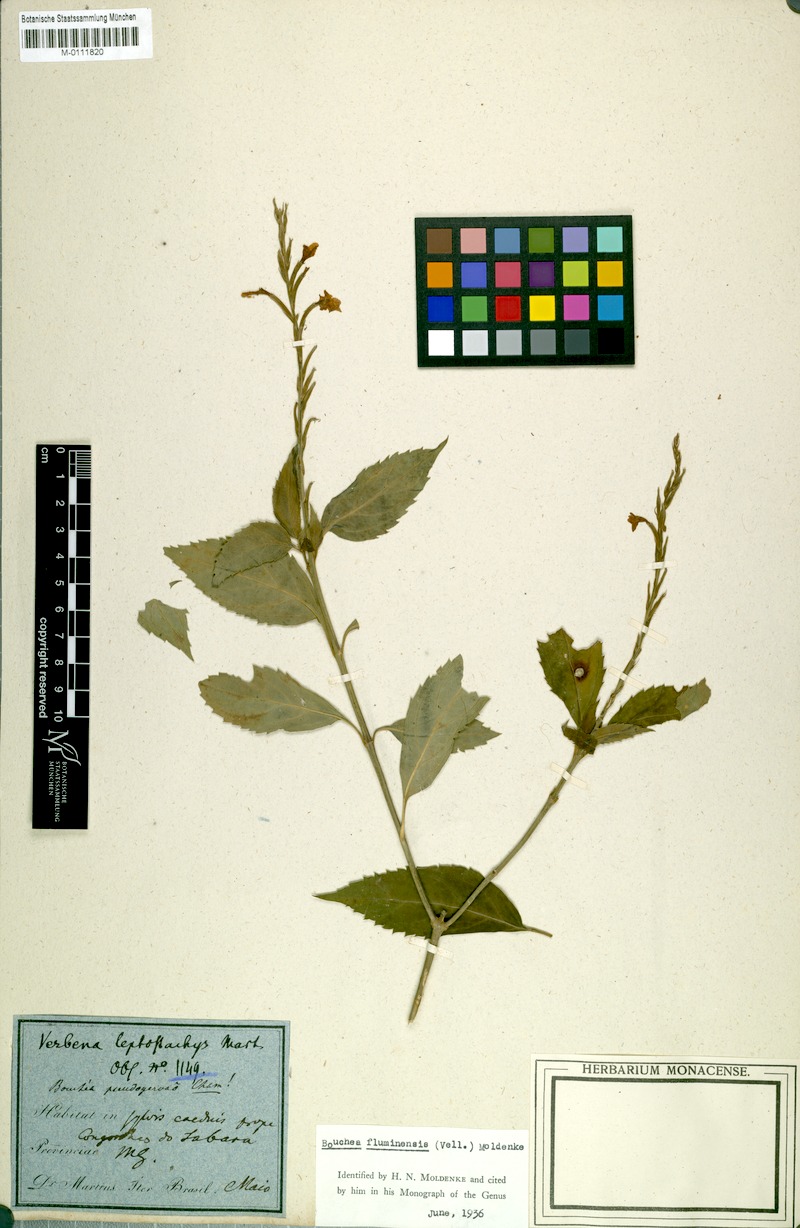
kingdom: Plantae
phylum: Tracheophyta
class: Magnoliopsida
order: Lamiales
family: Verbenaceae
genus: Bouchea
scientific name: Bouchea pseudogervao
